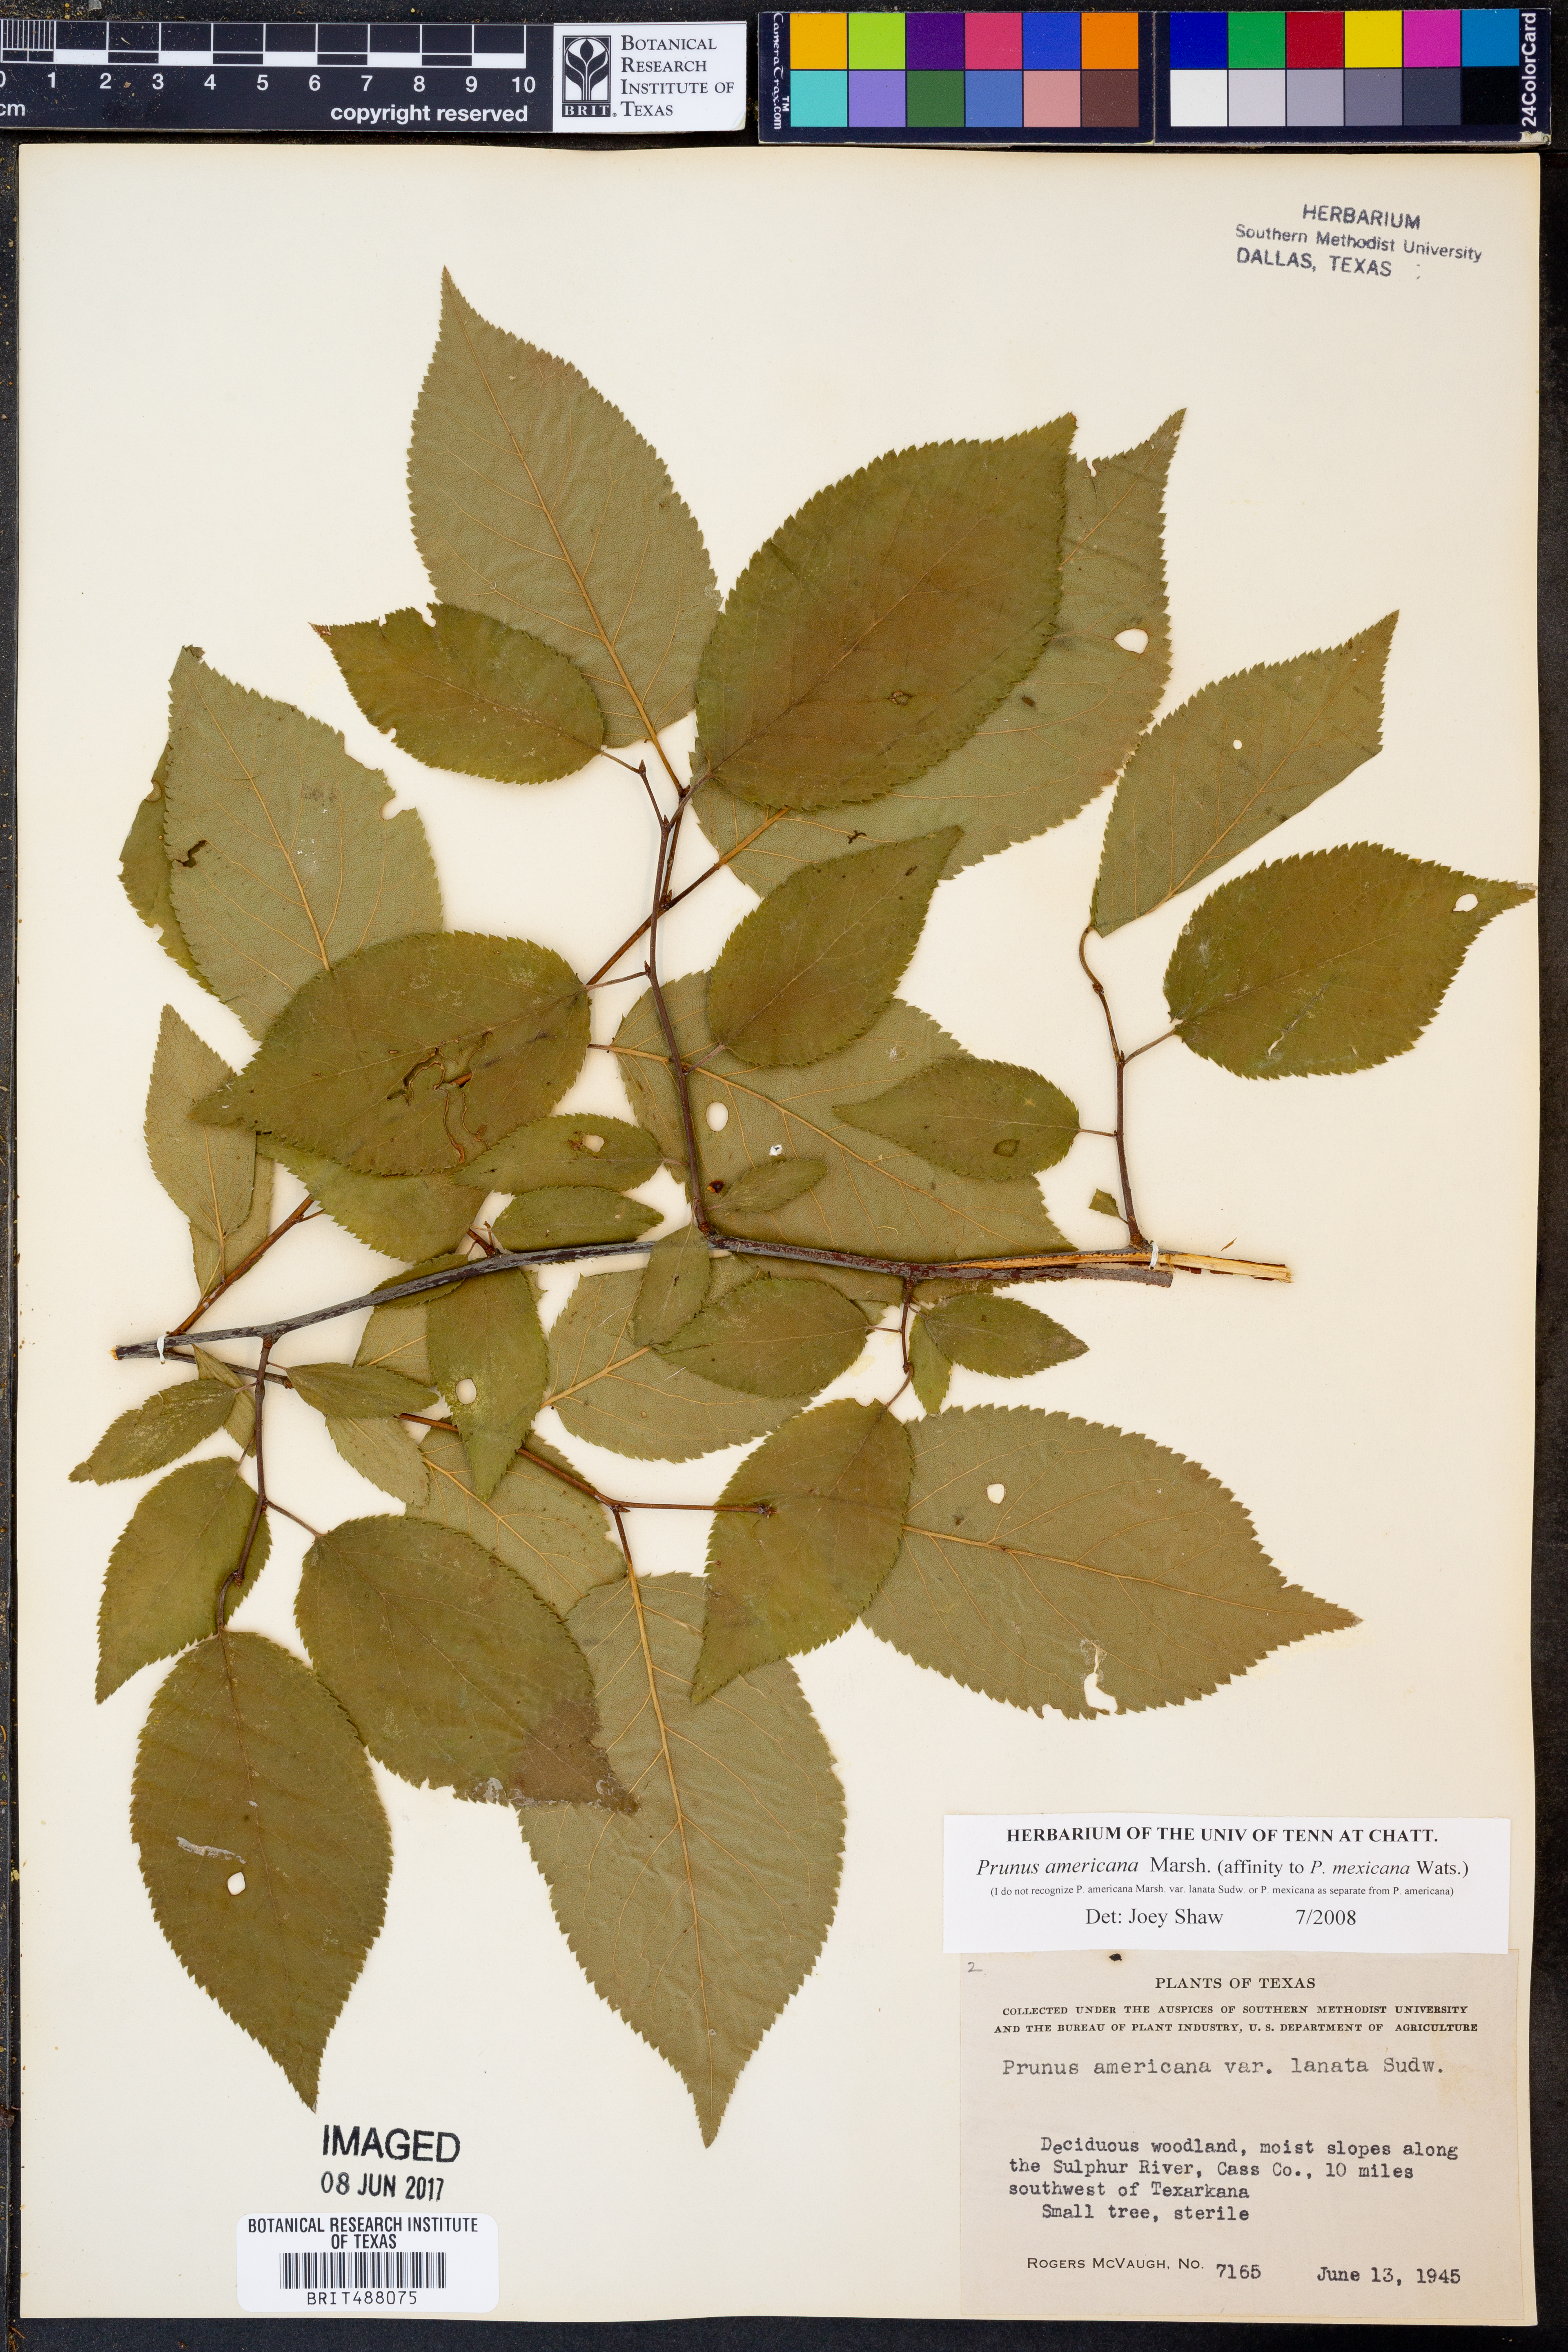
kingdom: Plantae
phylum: Tracheophyta
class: Magnoliopsida
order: Rosales
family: Rosaceae
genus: Prunus
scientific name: Prunus americana
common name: American plum
